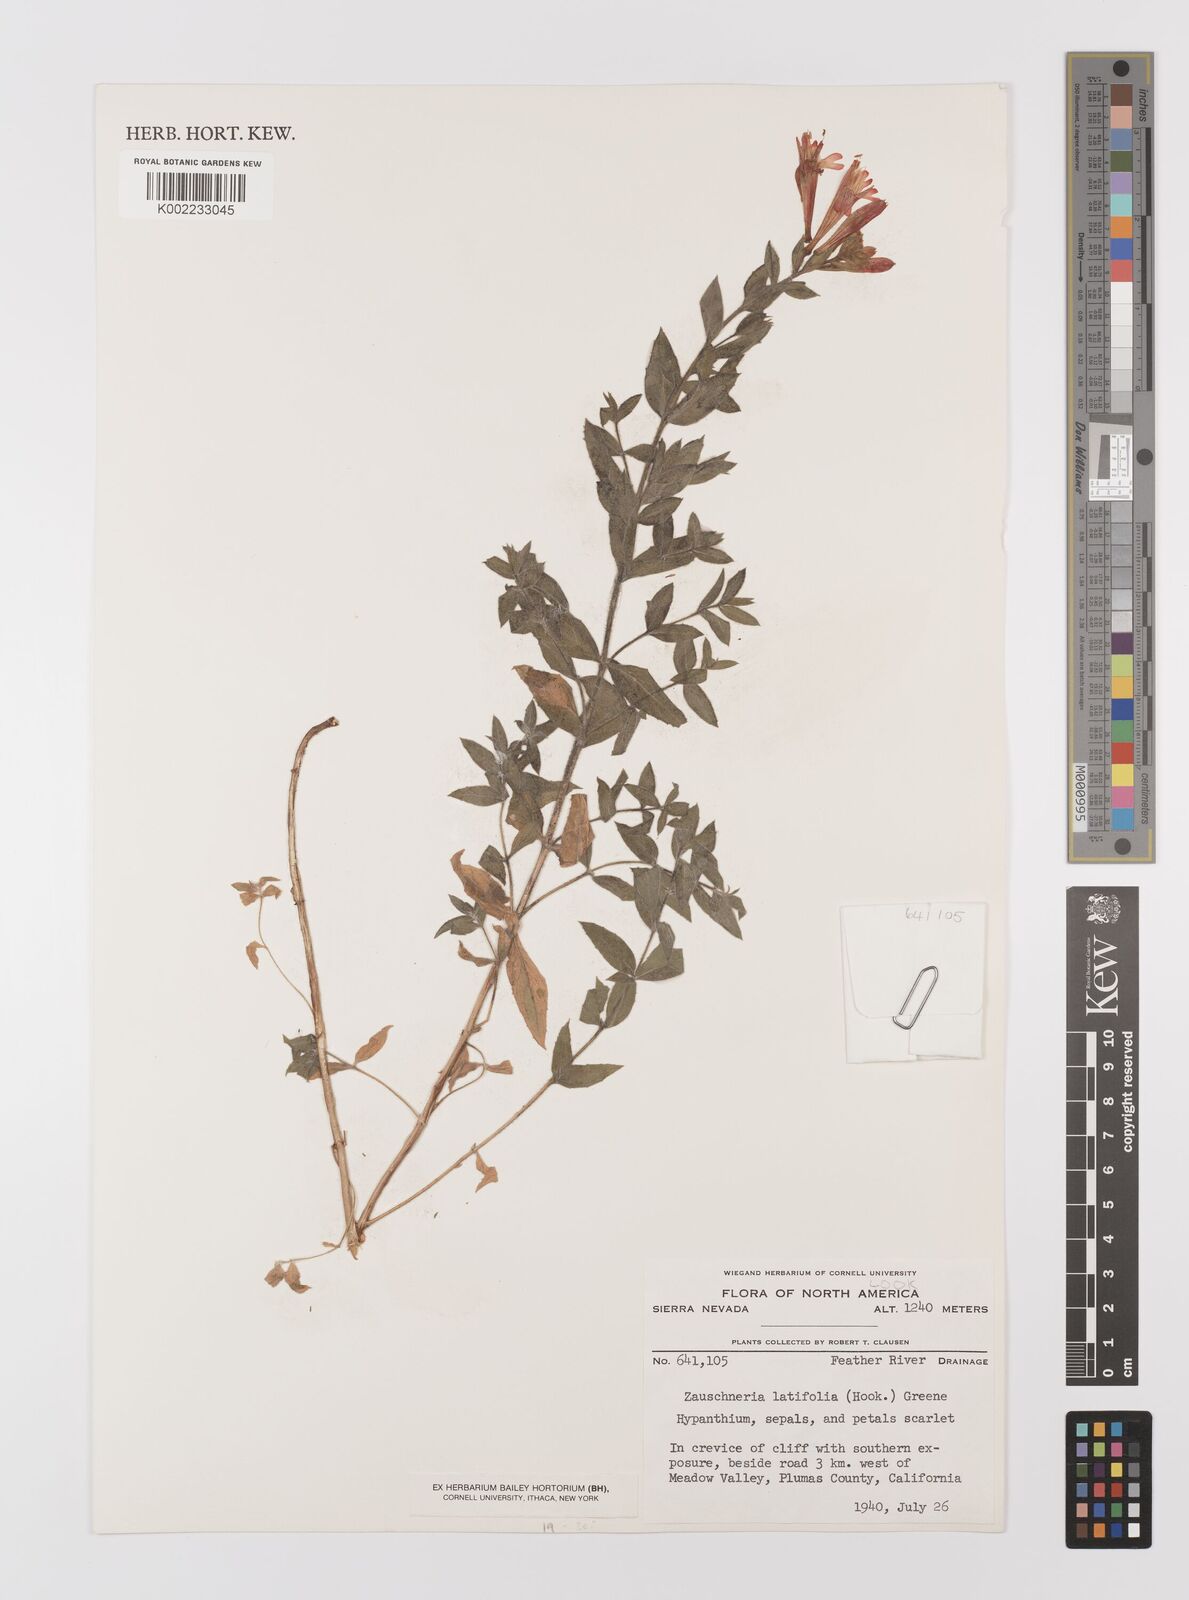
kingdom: Plantae
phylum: Tracheophyta
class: Magnoliopsida
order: Myrtales
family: Onagraceae
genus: Epilobium
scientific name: Epilobium
